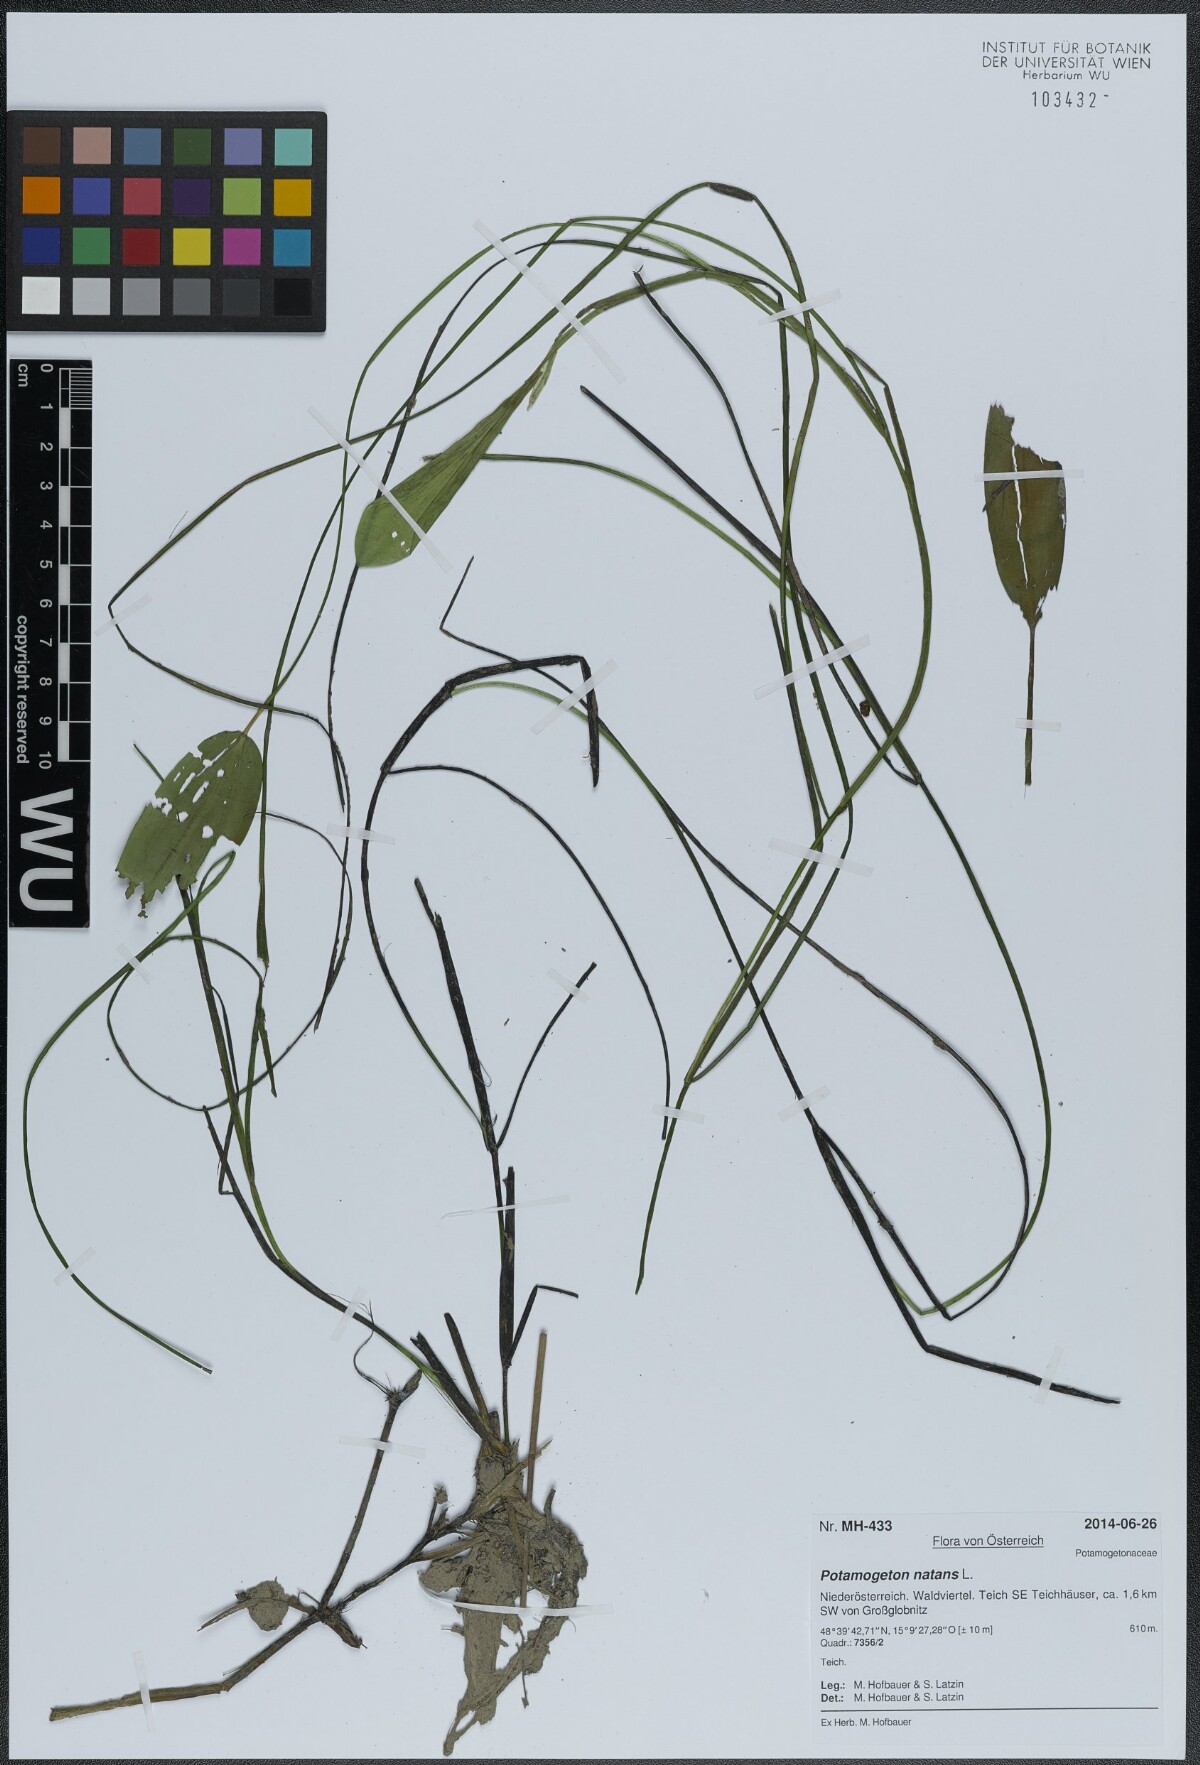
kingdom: Plantae
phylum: Tracheophyta
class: Liliopsida
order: Alismatales
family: Potamogetonaceae
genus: Potamogeton
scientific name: Potamogeton natans
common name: Broad-leaved pondweed
